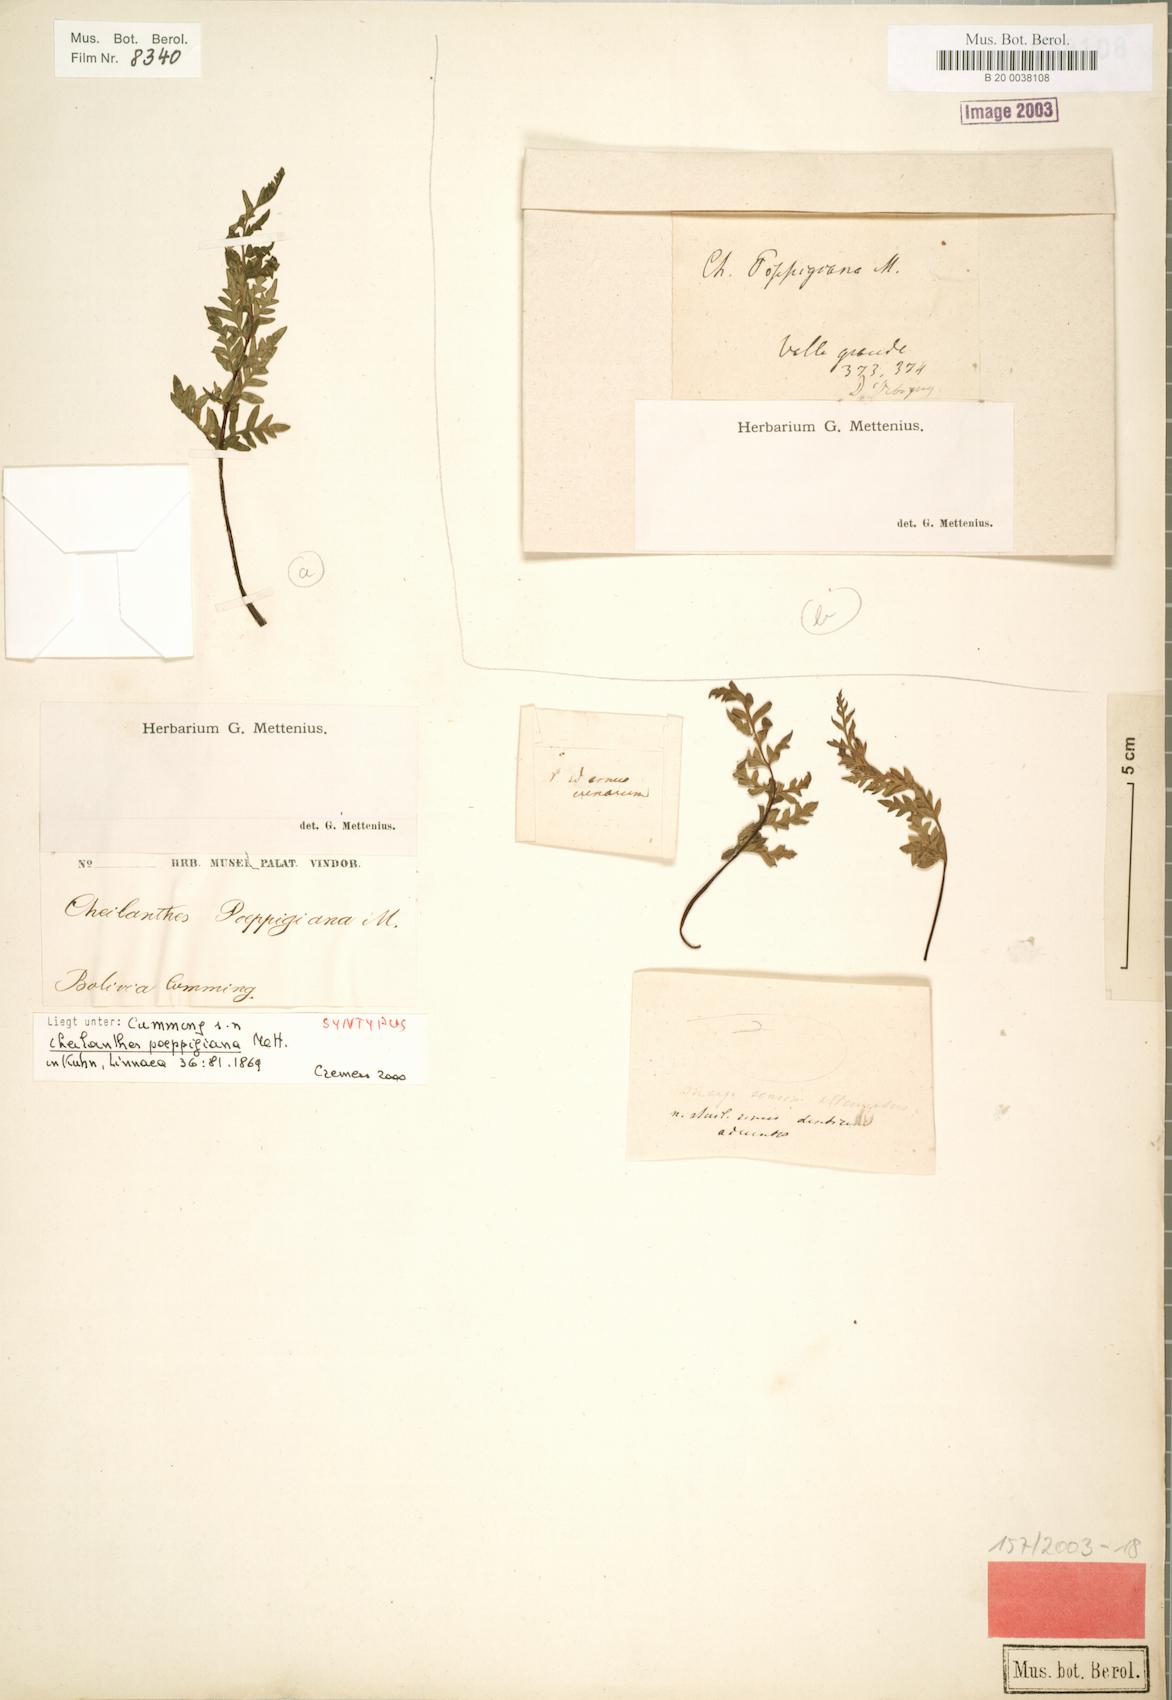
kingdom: Plantae
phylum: Tracheophyta
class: Polypodiopsida
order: Polypodiales
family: Pteridaceae
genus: Cheilanthes
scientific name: Cheilanthes poeppigiana
